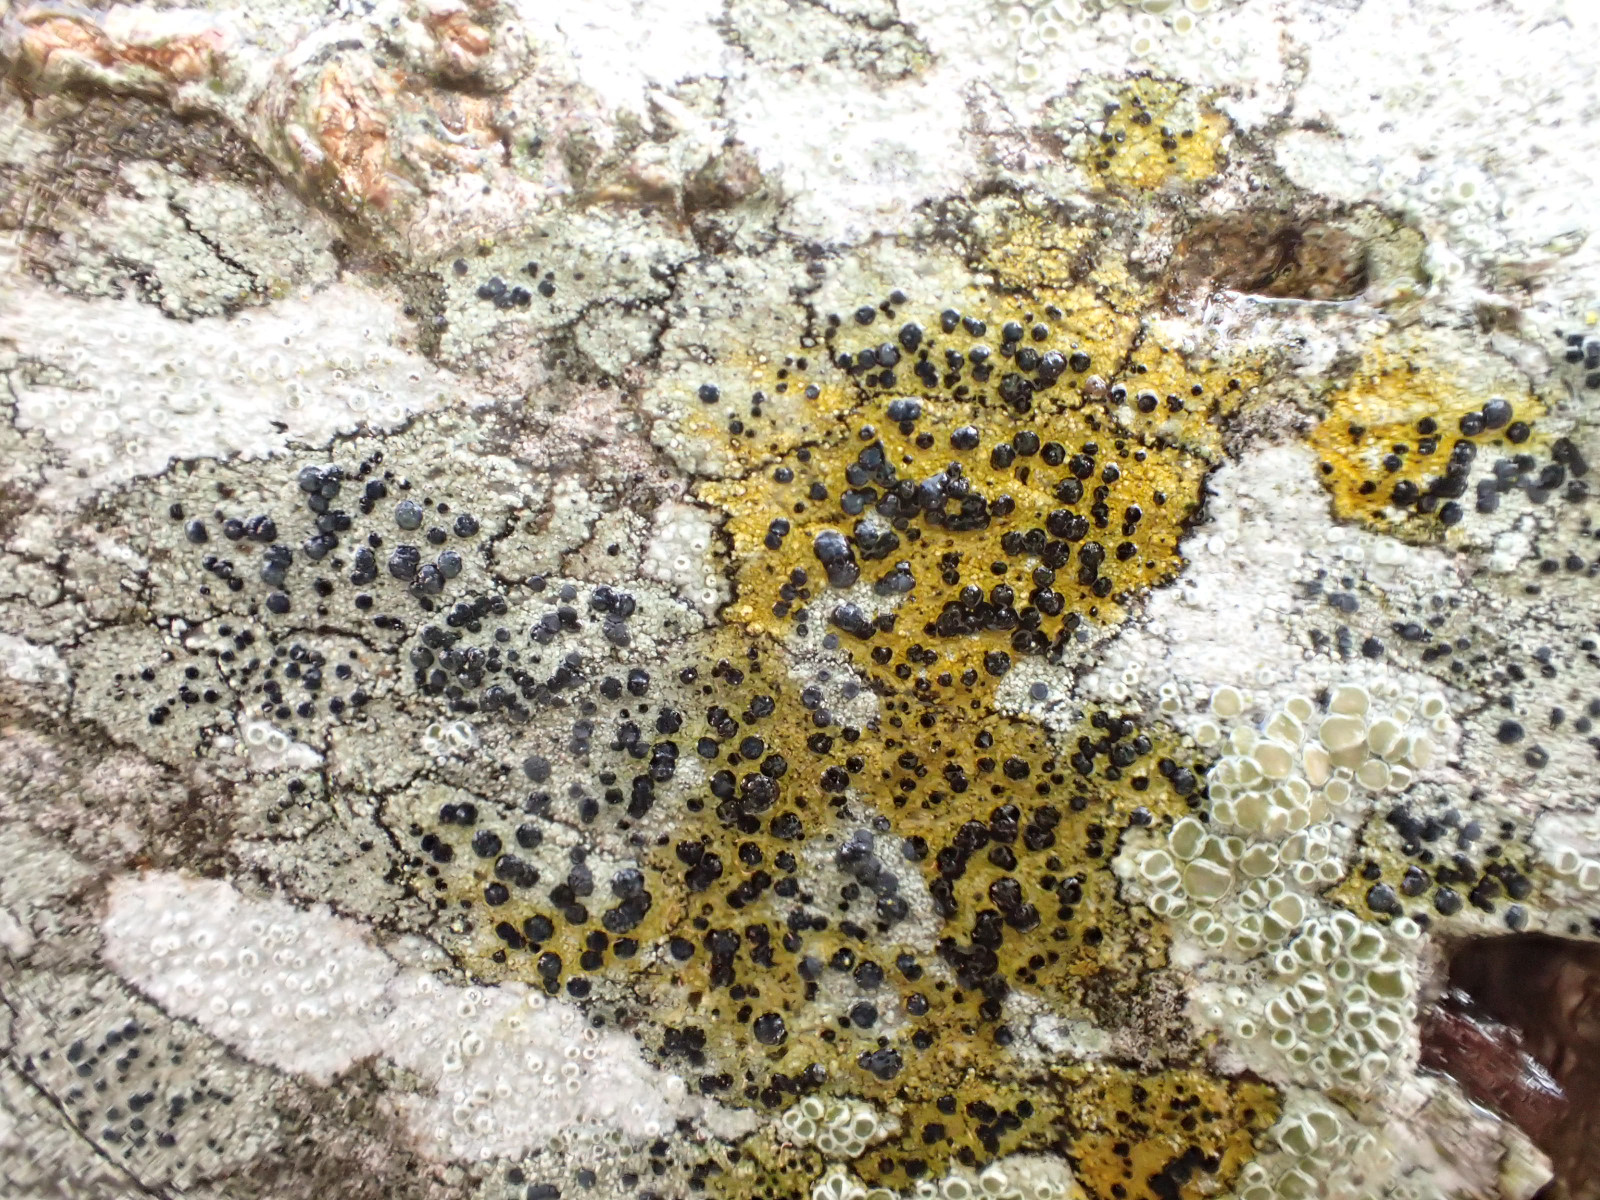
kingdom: Fungi
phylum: Ascomycota
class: Lecanoromycetes
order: Lecanorales
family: Lecanoraceae
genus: Lecidella
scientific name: Lecidella elaeochroma
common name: grågrøn skivelav
